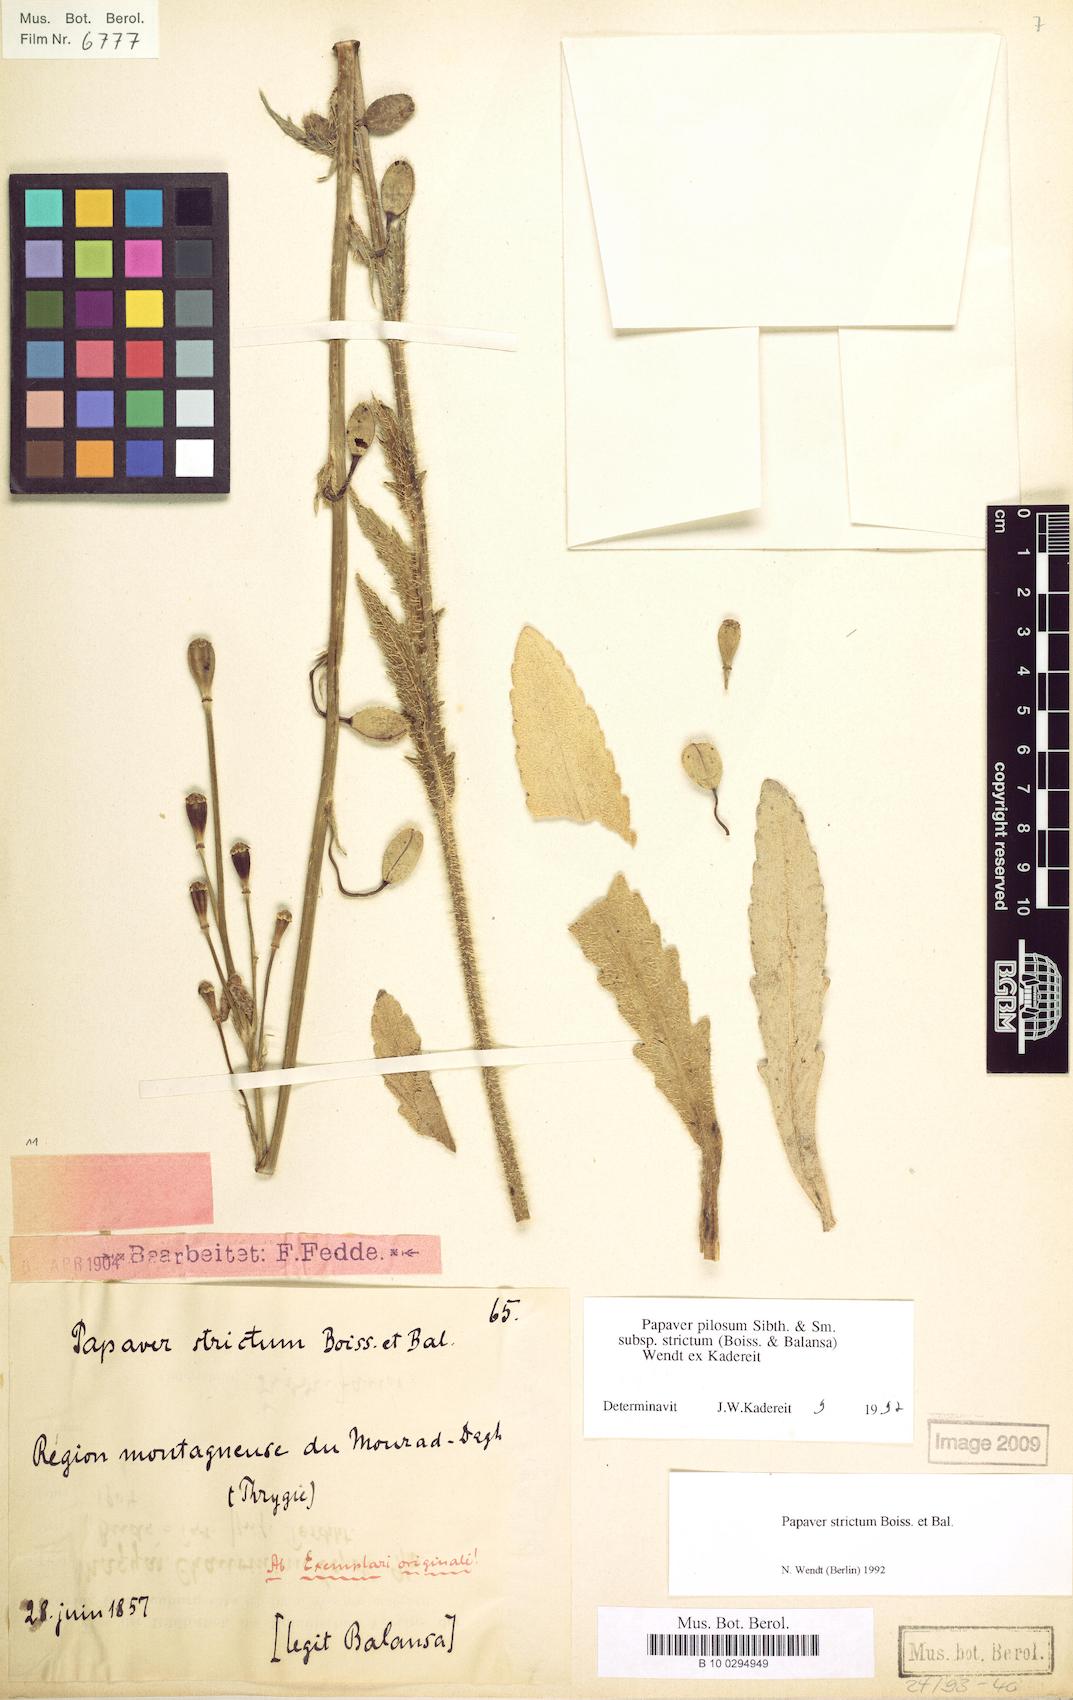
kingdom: Plantae
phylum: Tracheophyta
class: Magnoliopsida
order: Ranunculales
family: Papaveraceae
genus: Papaver
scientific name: Papaver pilosum
